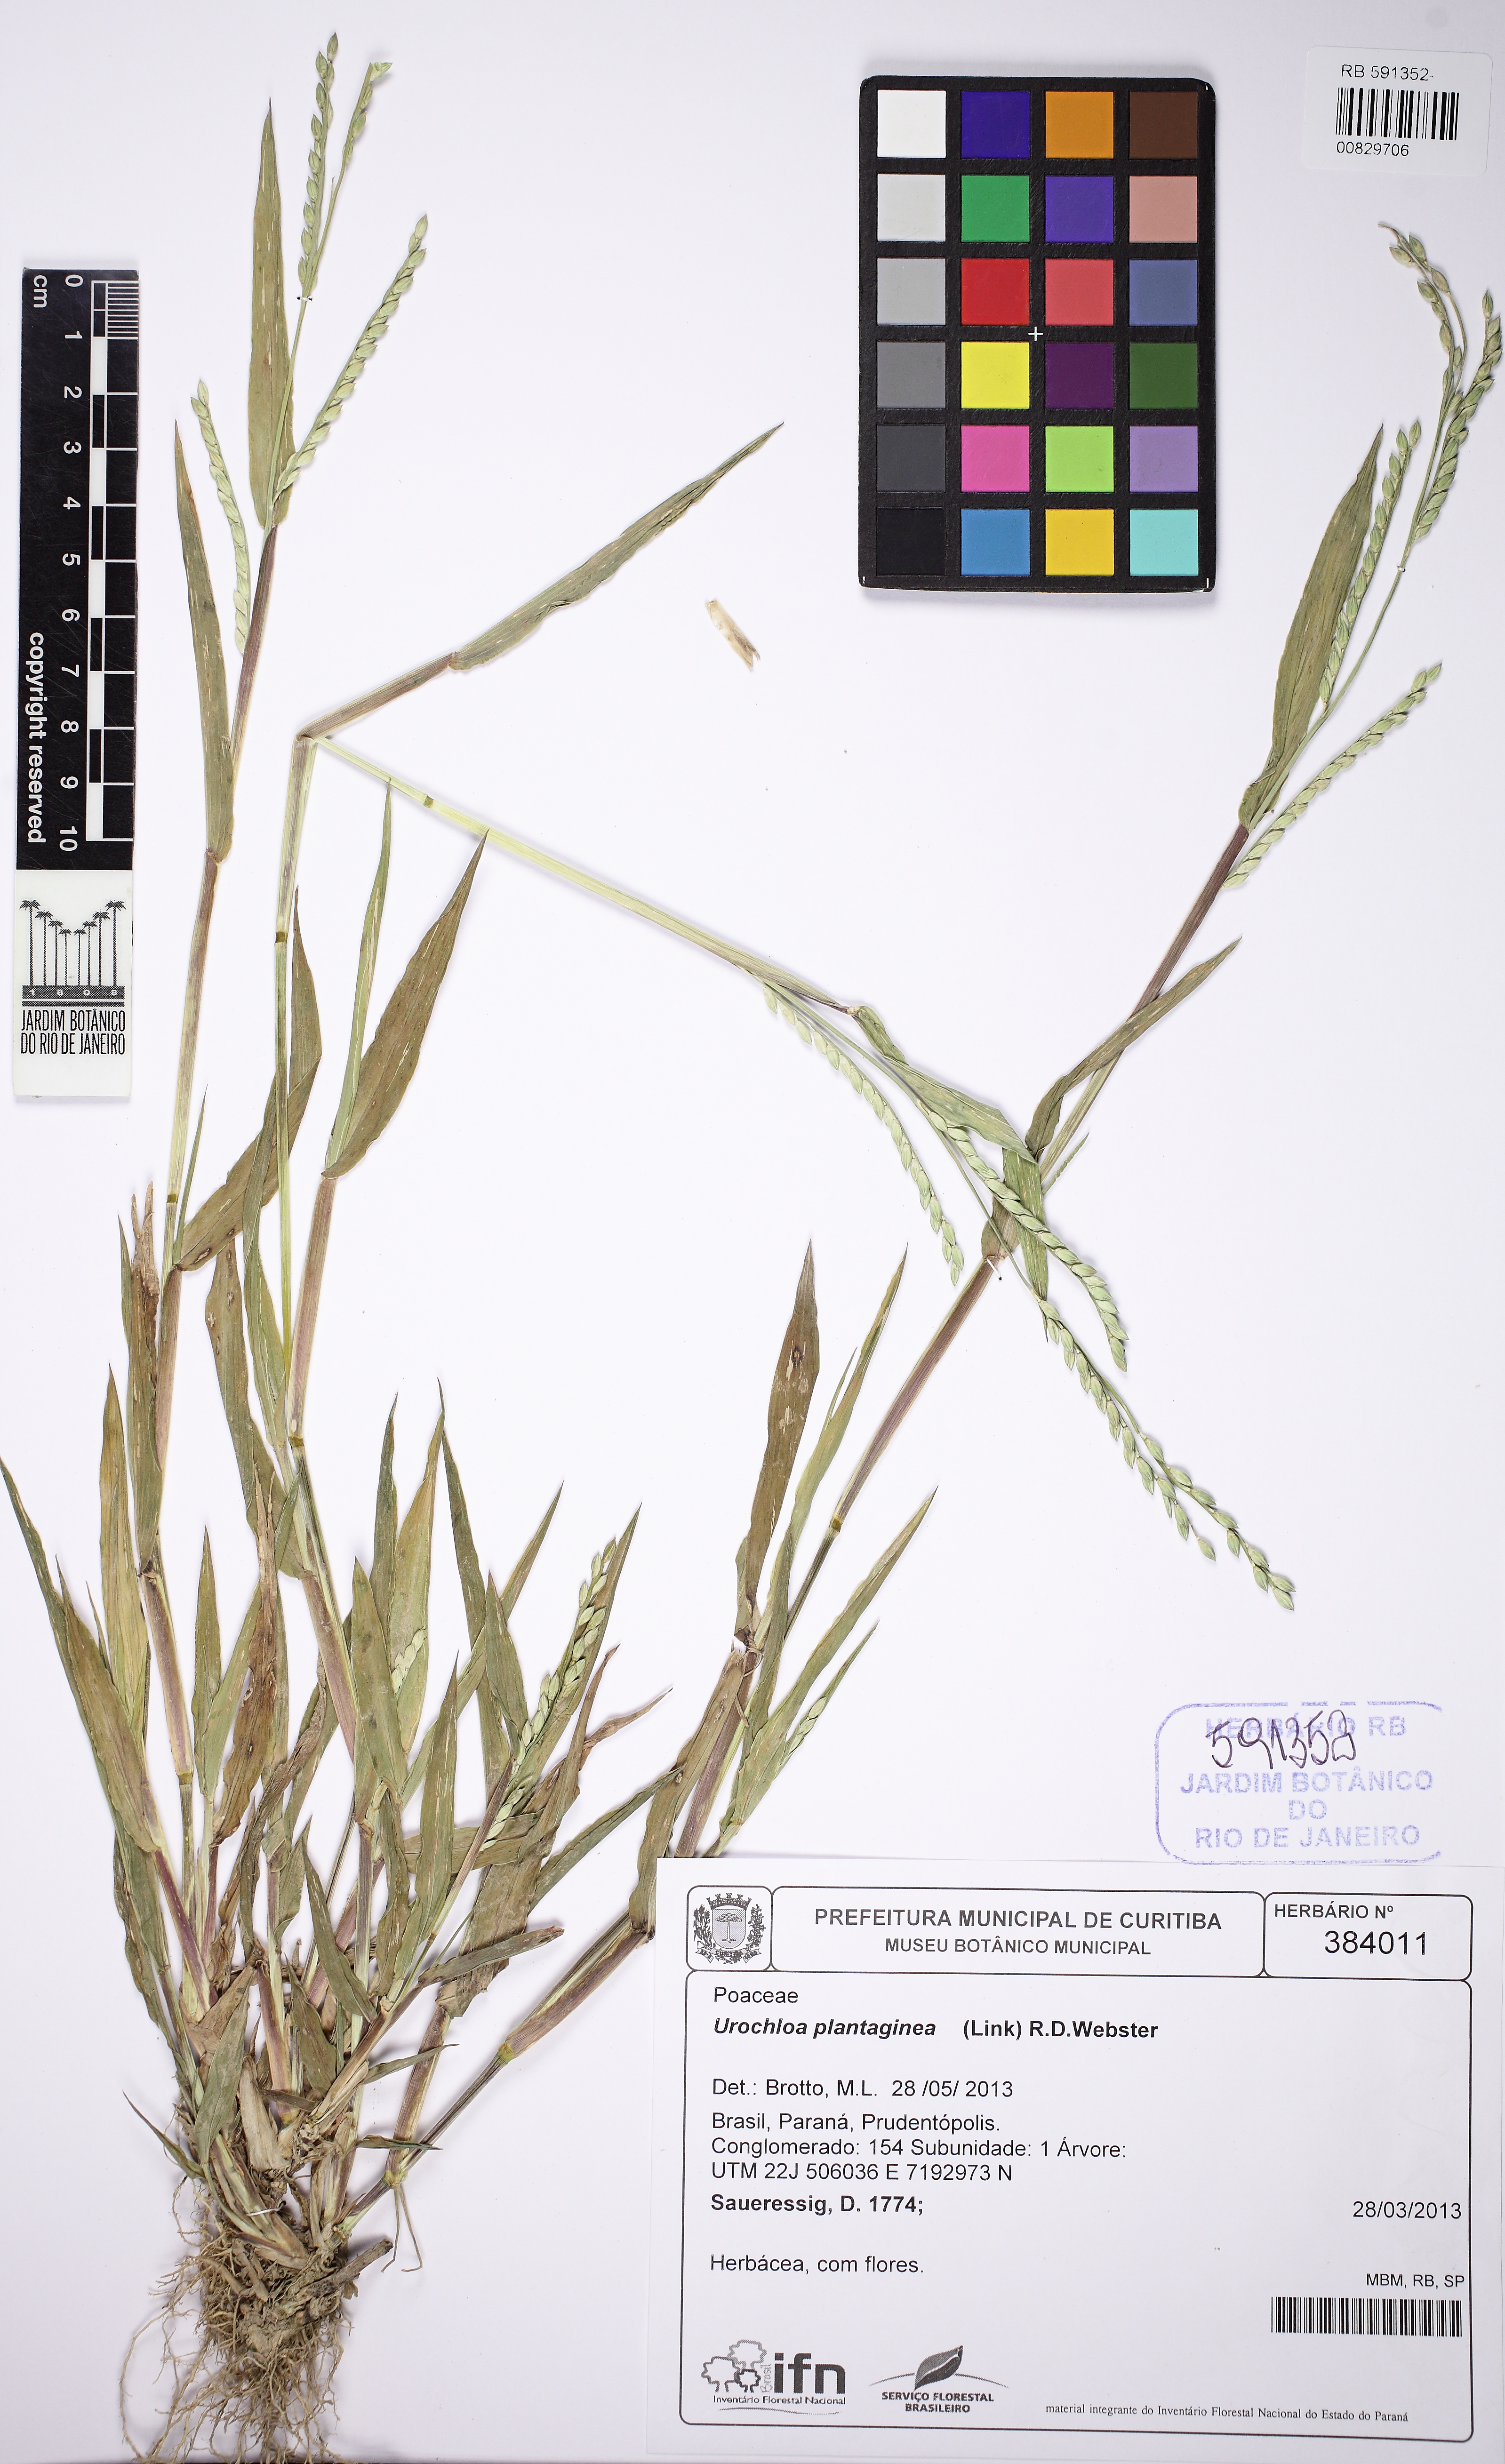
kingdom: Plantae
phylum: Tracheophyta
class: Liliopsida
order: Poales
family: Poaceae
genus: Urochloa
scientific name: Urochloa plantaginea
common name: Plantain signalgrass
